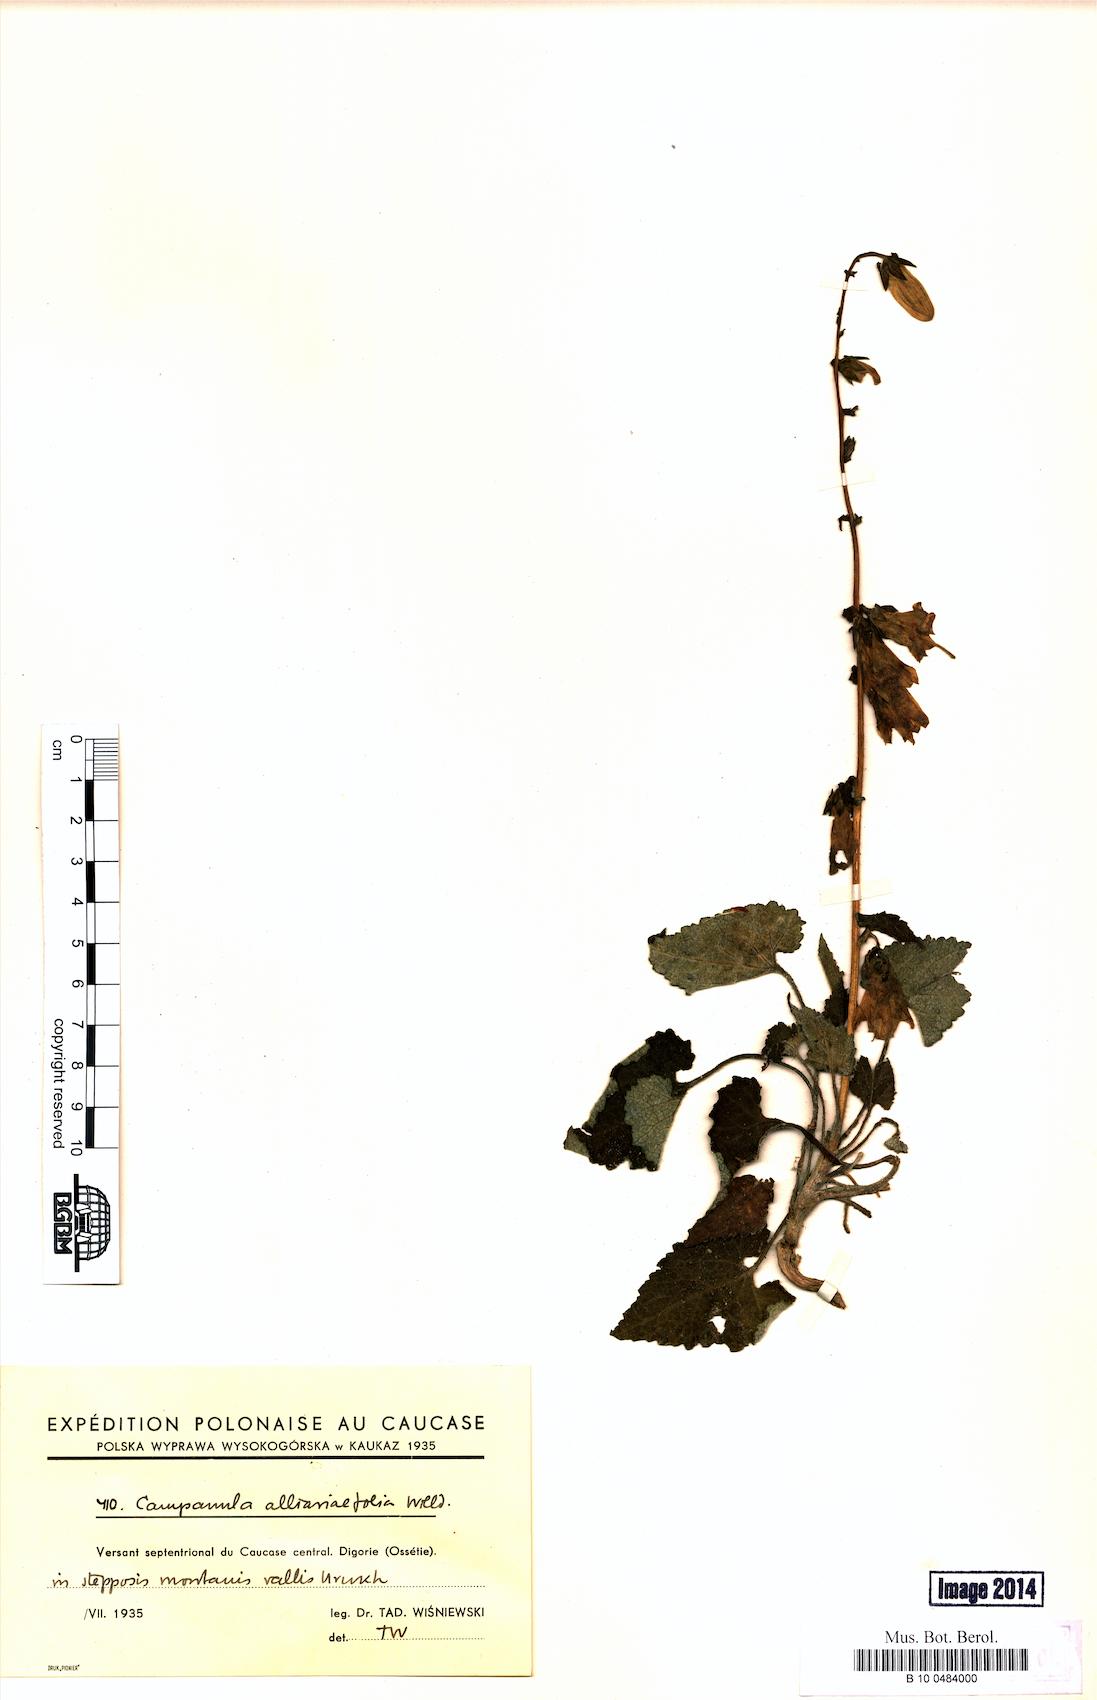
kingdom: Plantae
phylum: Tracheophyta
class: Magnoliopsida
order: Asterales
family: Campanulaceae
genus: Campanula
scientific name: Campanula alliariifolia
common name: Cornish bellflower
